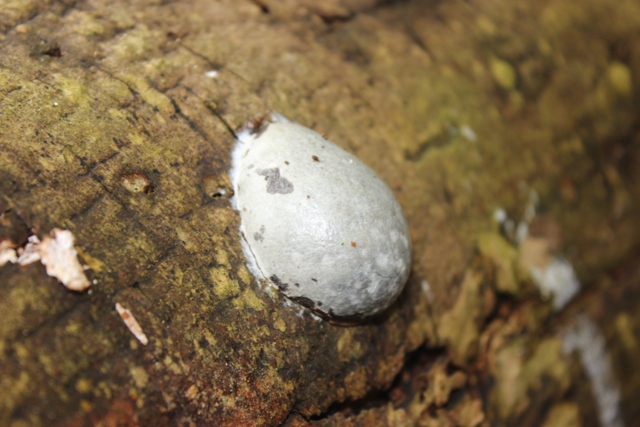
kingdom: Protozoa
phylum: Mycetozoa
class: Myxomycetes
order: Cribrariales
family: Tubiferaceae
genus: Reticularia
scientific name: Reticularia lycoperdon
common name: skinnende støvpude
